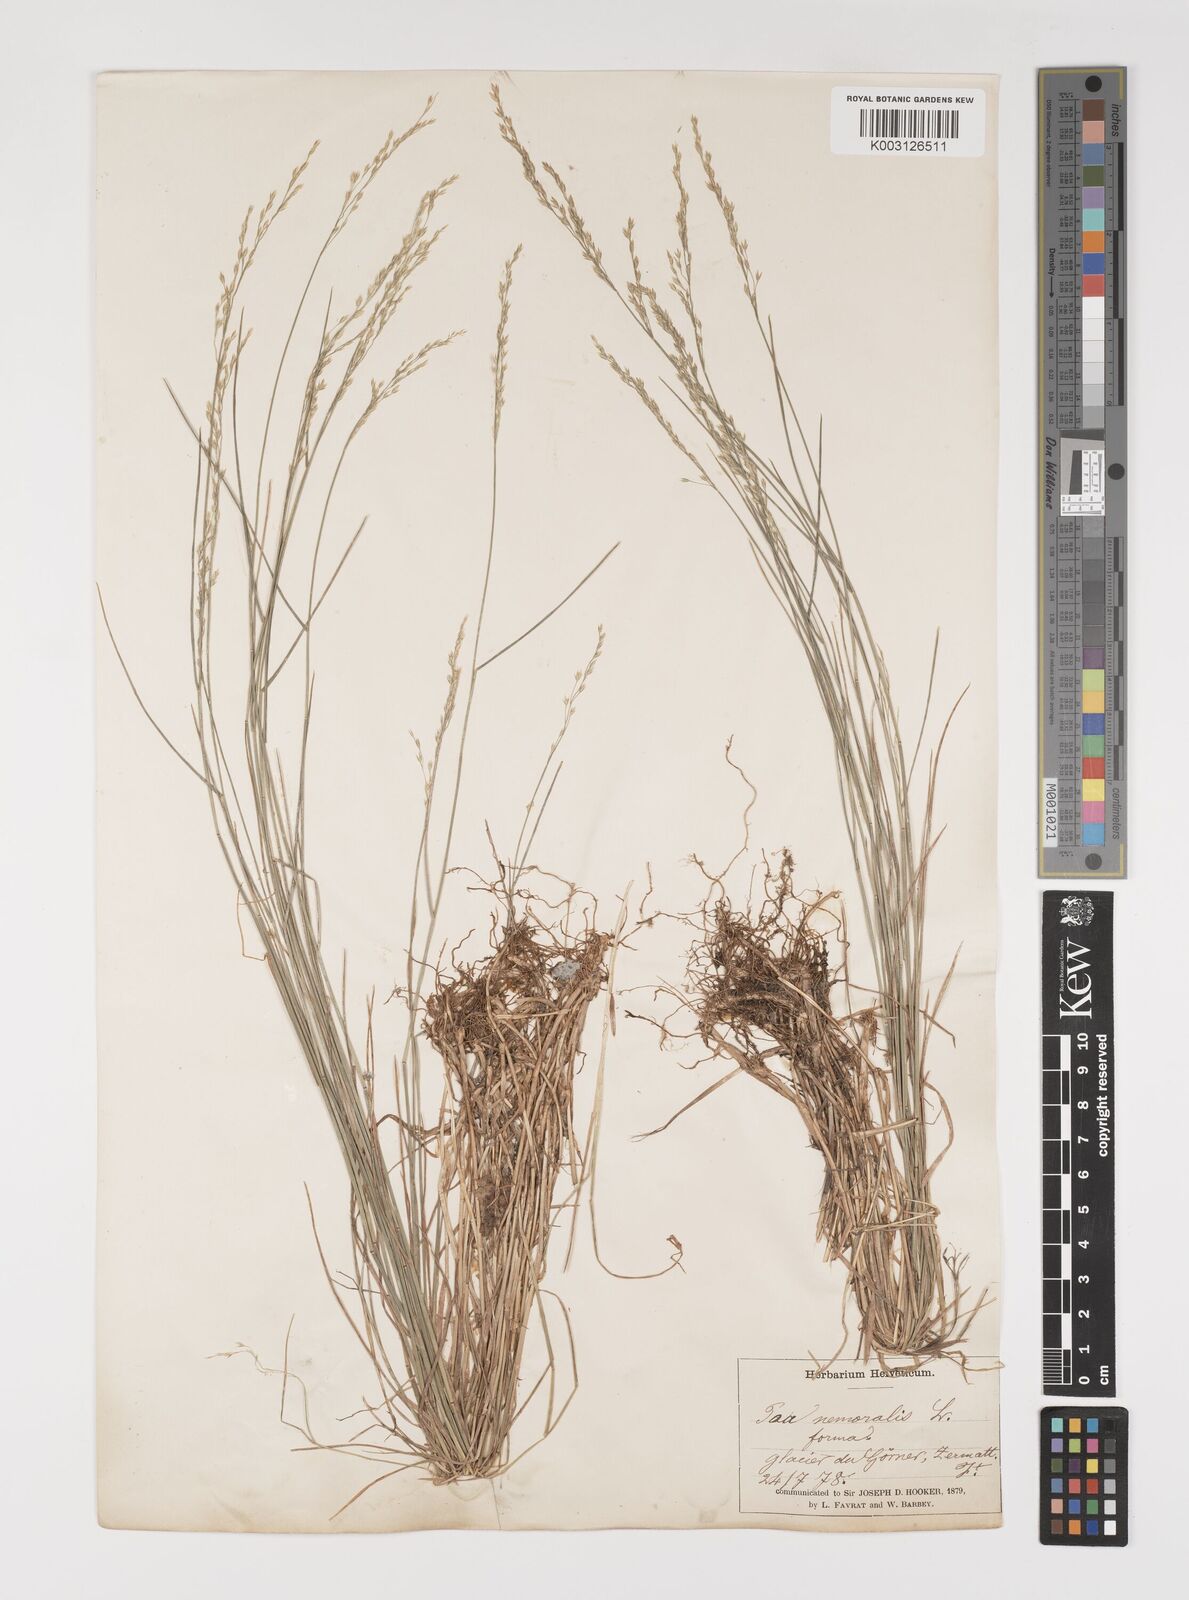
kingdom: Plantae
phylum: Tracheophyta
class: Liliopsida
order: Poales
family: Poaceae
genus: Poa
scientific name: Poa nemoralis
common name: Wood bluegrass
